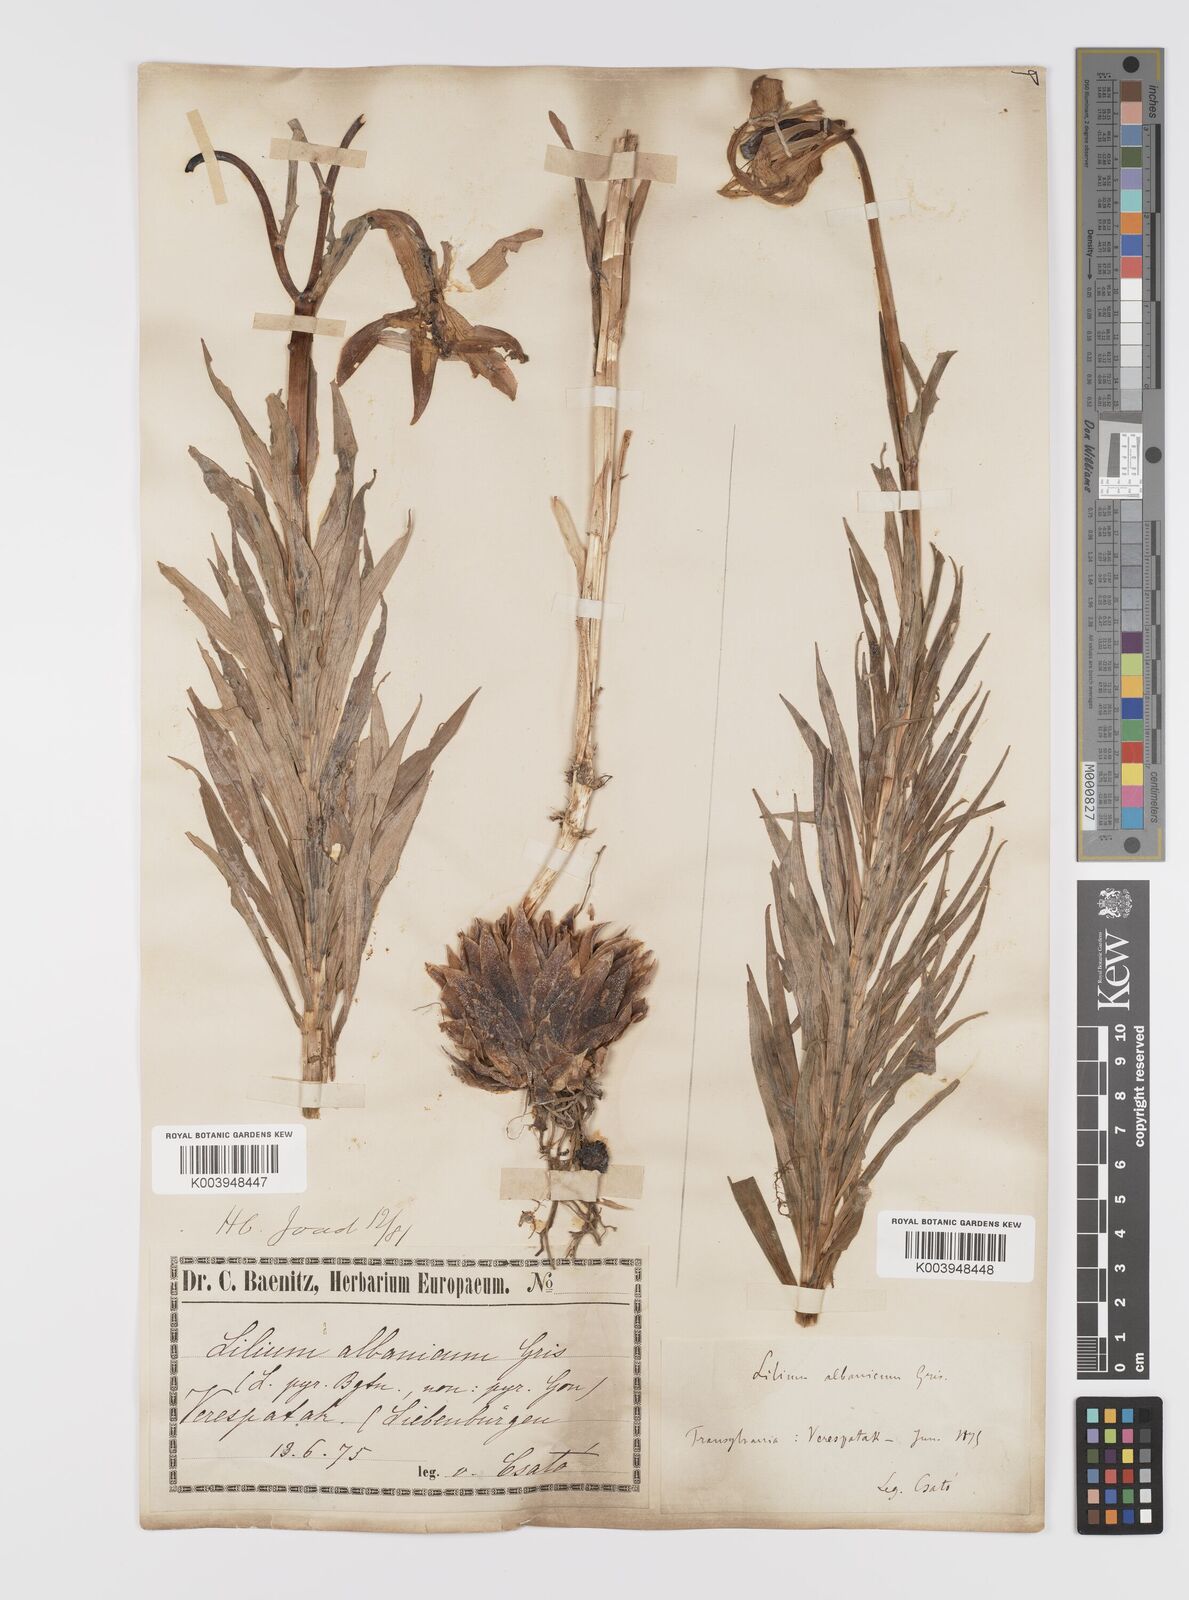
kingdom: Plantae
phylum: Tracheophyta
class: Liliopsida
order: Liliales
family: Liliaceae
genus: Lilium
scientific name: Lilium jankae
